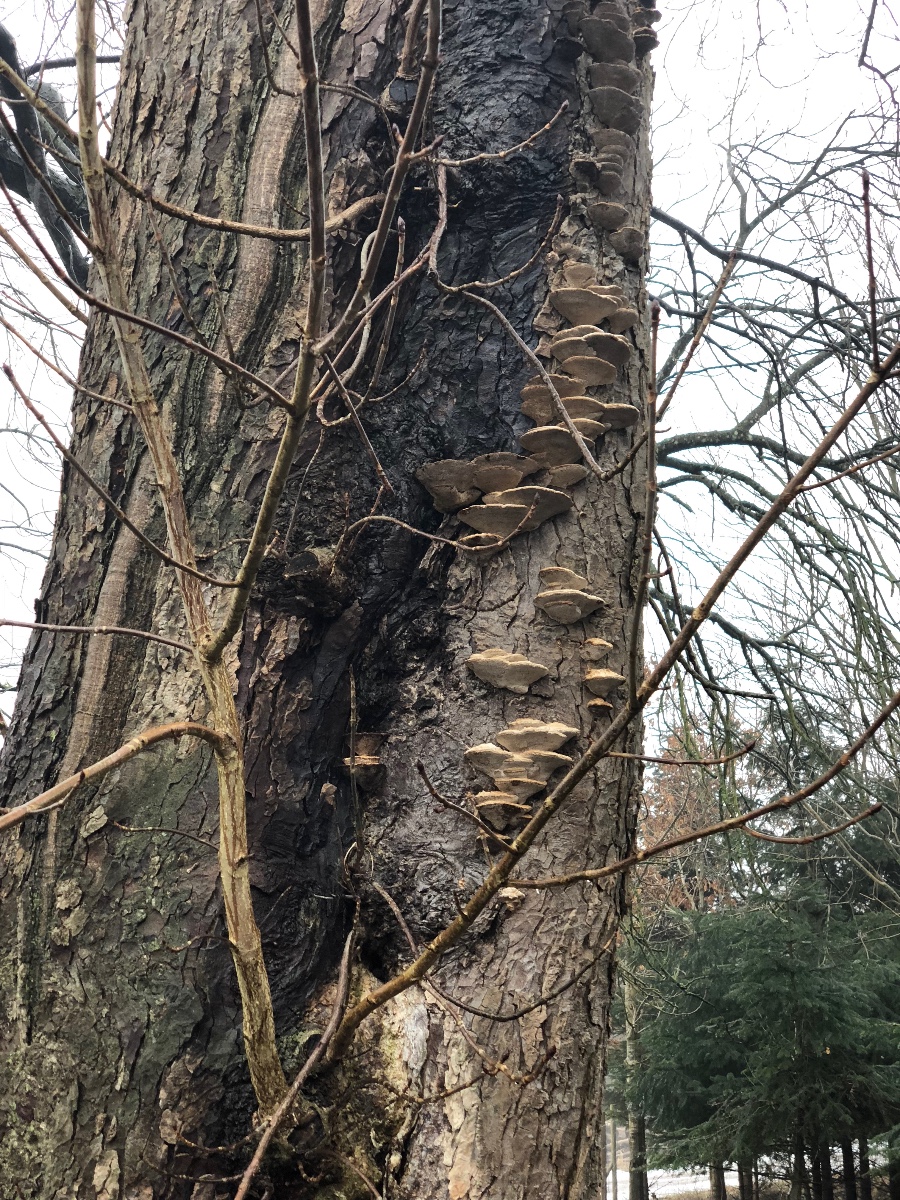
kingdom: Fungi
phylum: Basidiomycota
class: Agaricomycetes
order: Polyporales
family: Polyporaceae
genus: Daedaleopsis
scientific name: Daedaleopsis confragosa
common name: rødmende læderporesvamp
